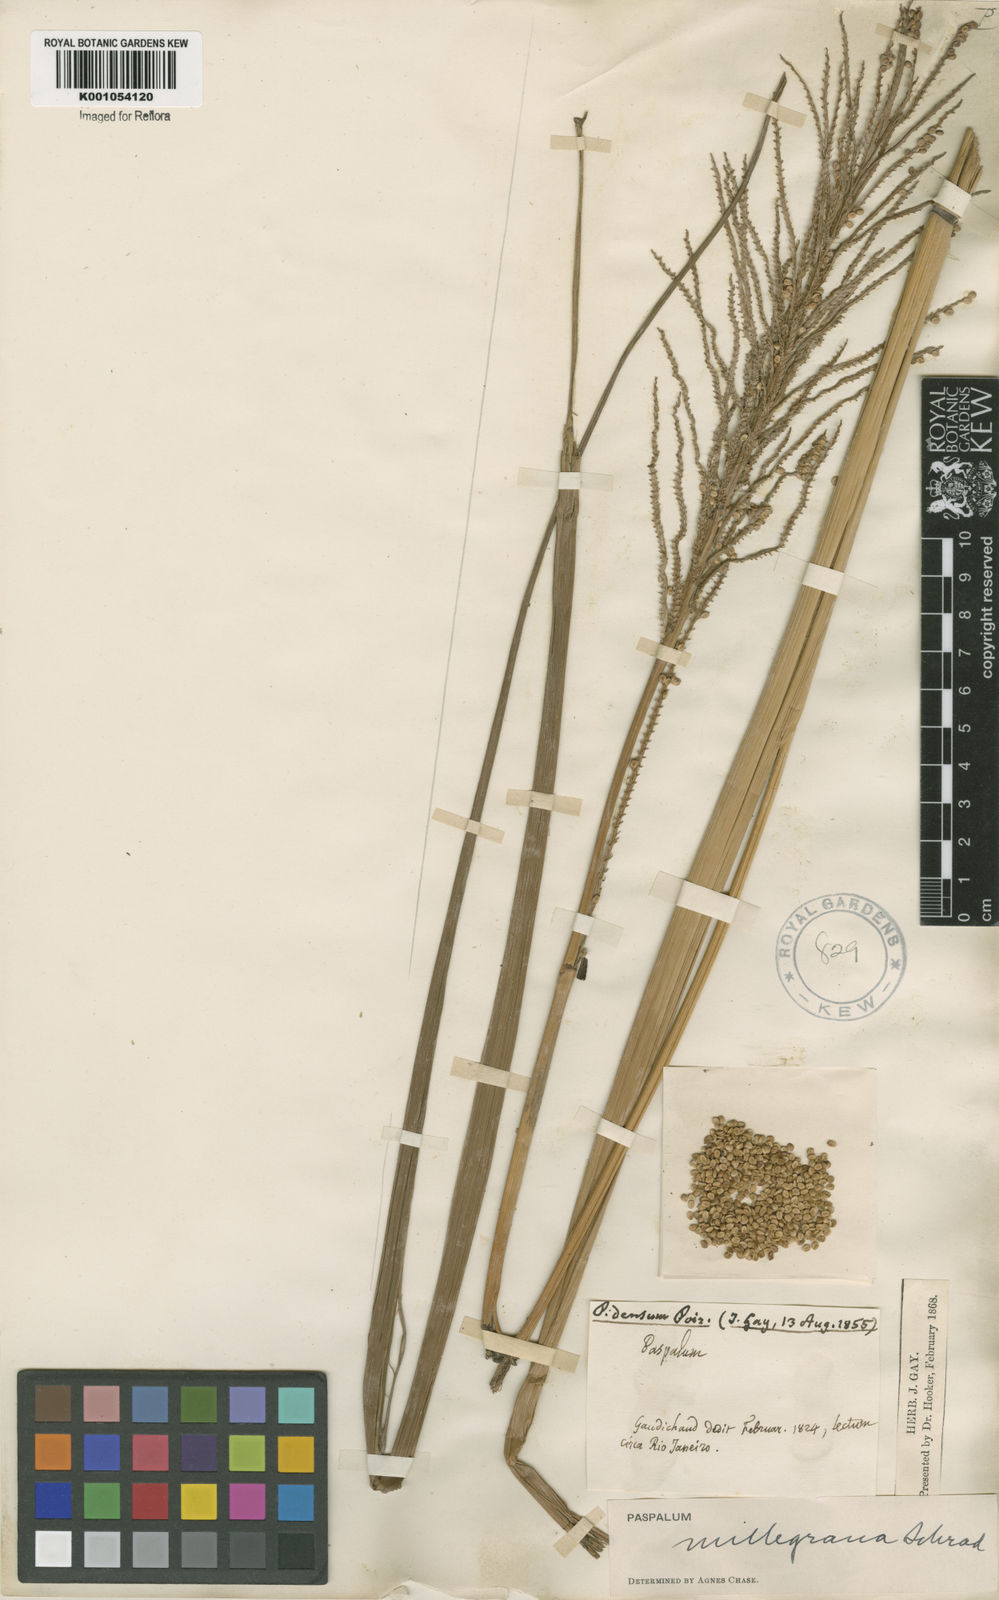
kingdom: Plantae
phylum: Tracheophyta
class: Liliopsida
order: Poales
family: Poaceae
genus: Paspalum
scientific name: Paspalum
